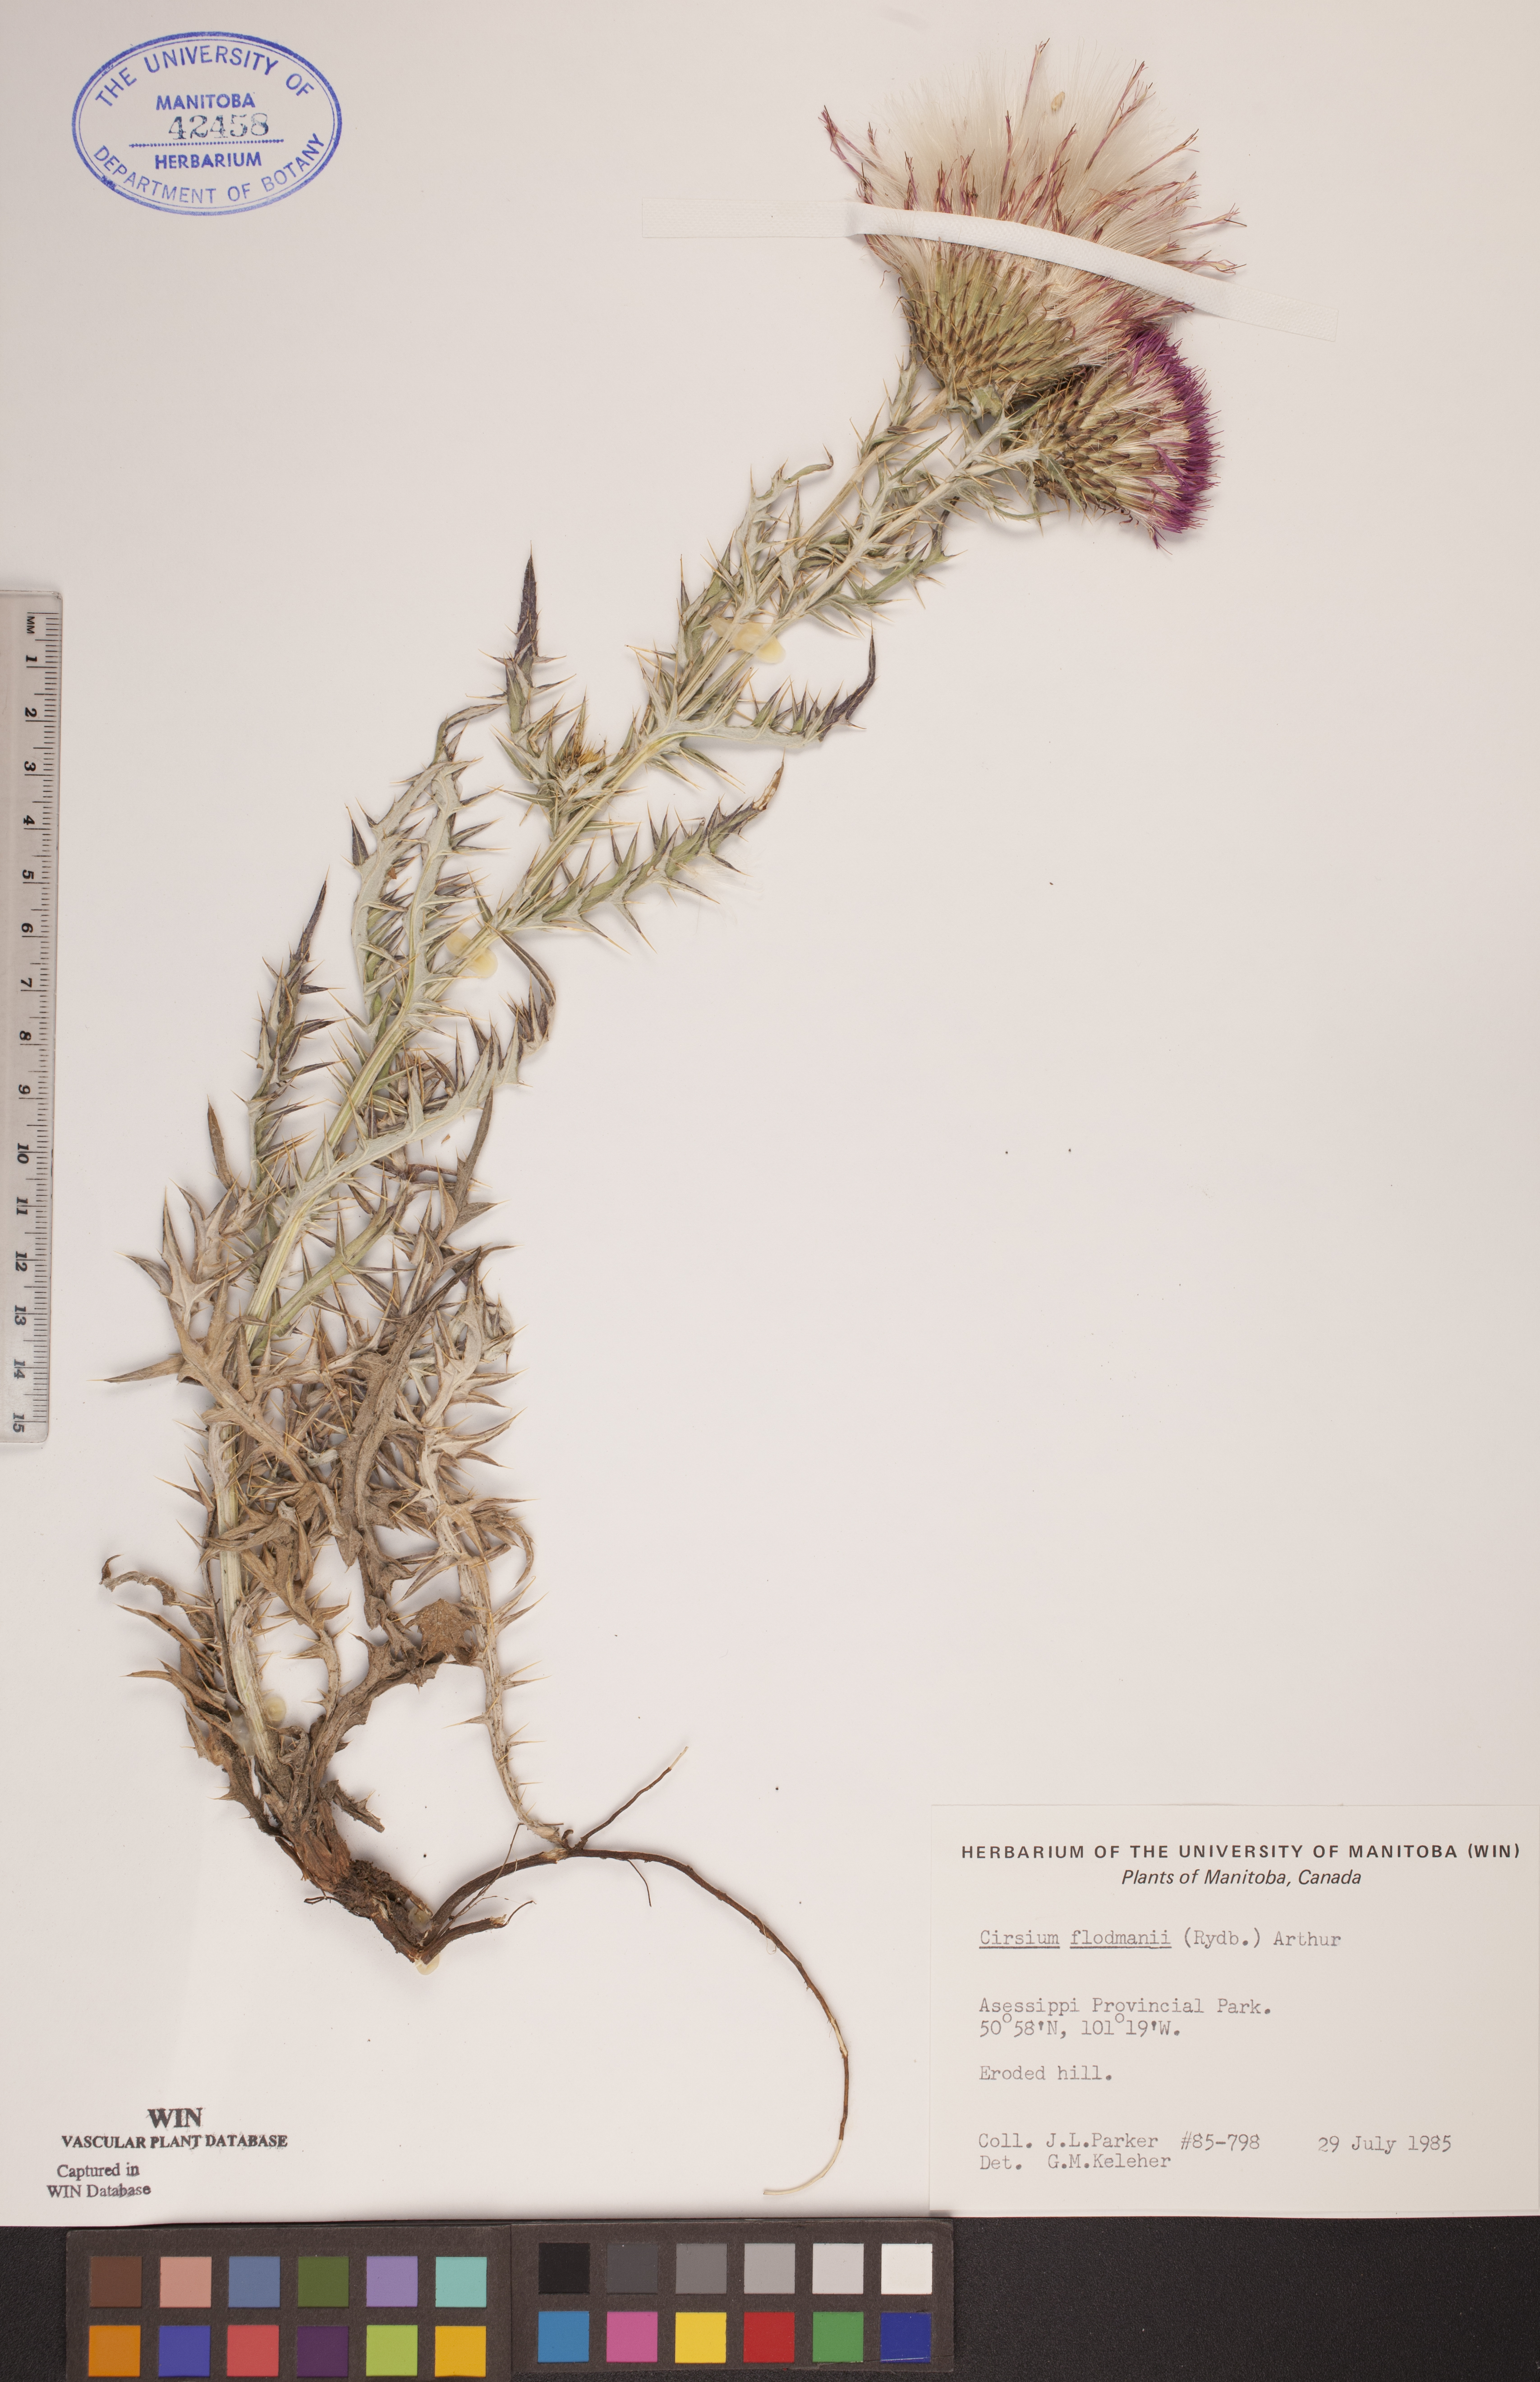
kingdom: Plantae
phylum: Tracheophyta
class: Magnoliopsida
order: Asterales
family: Asteraceae
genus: Cirsium
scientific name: Cirsium flodmanii
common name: Flodman's thistle
